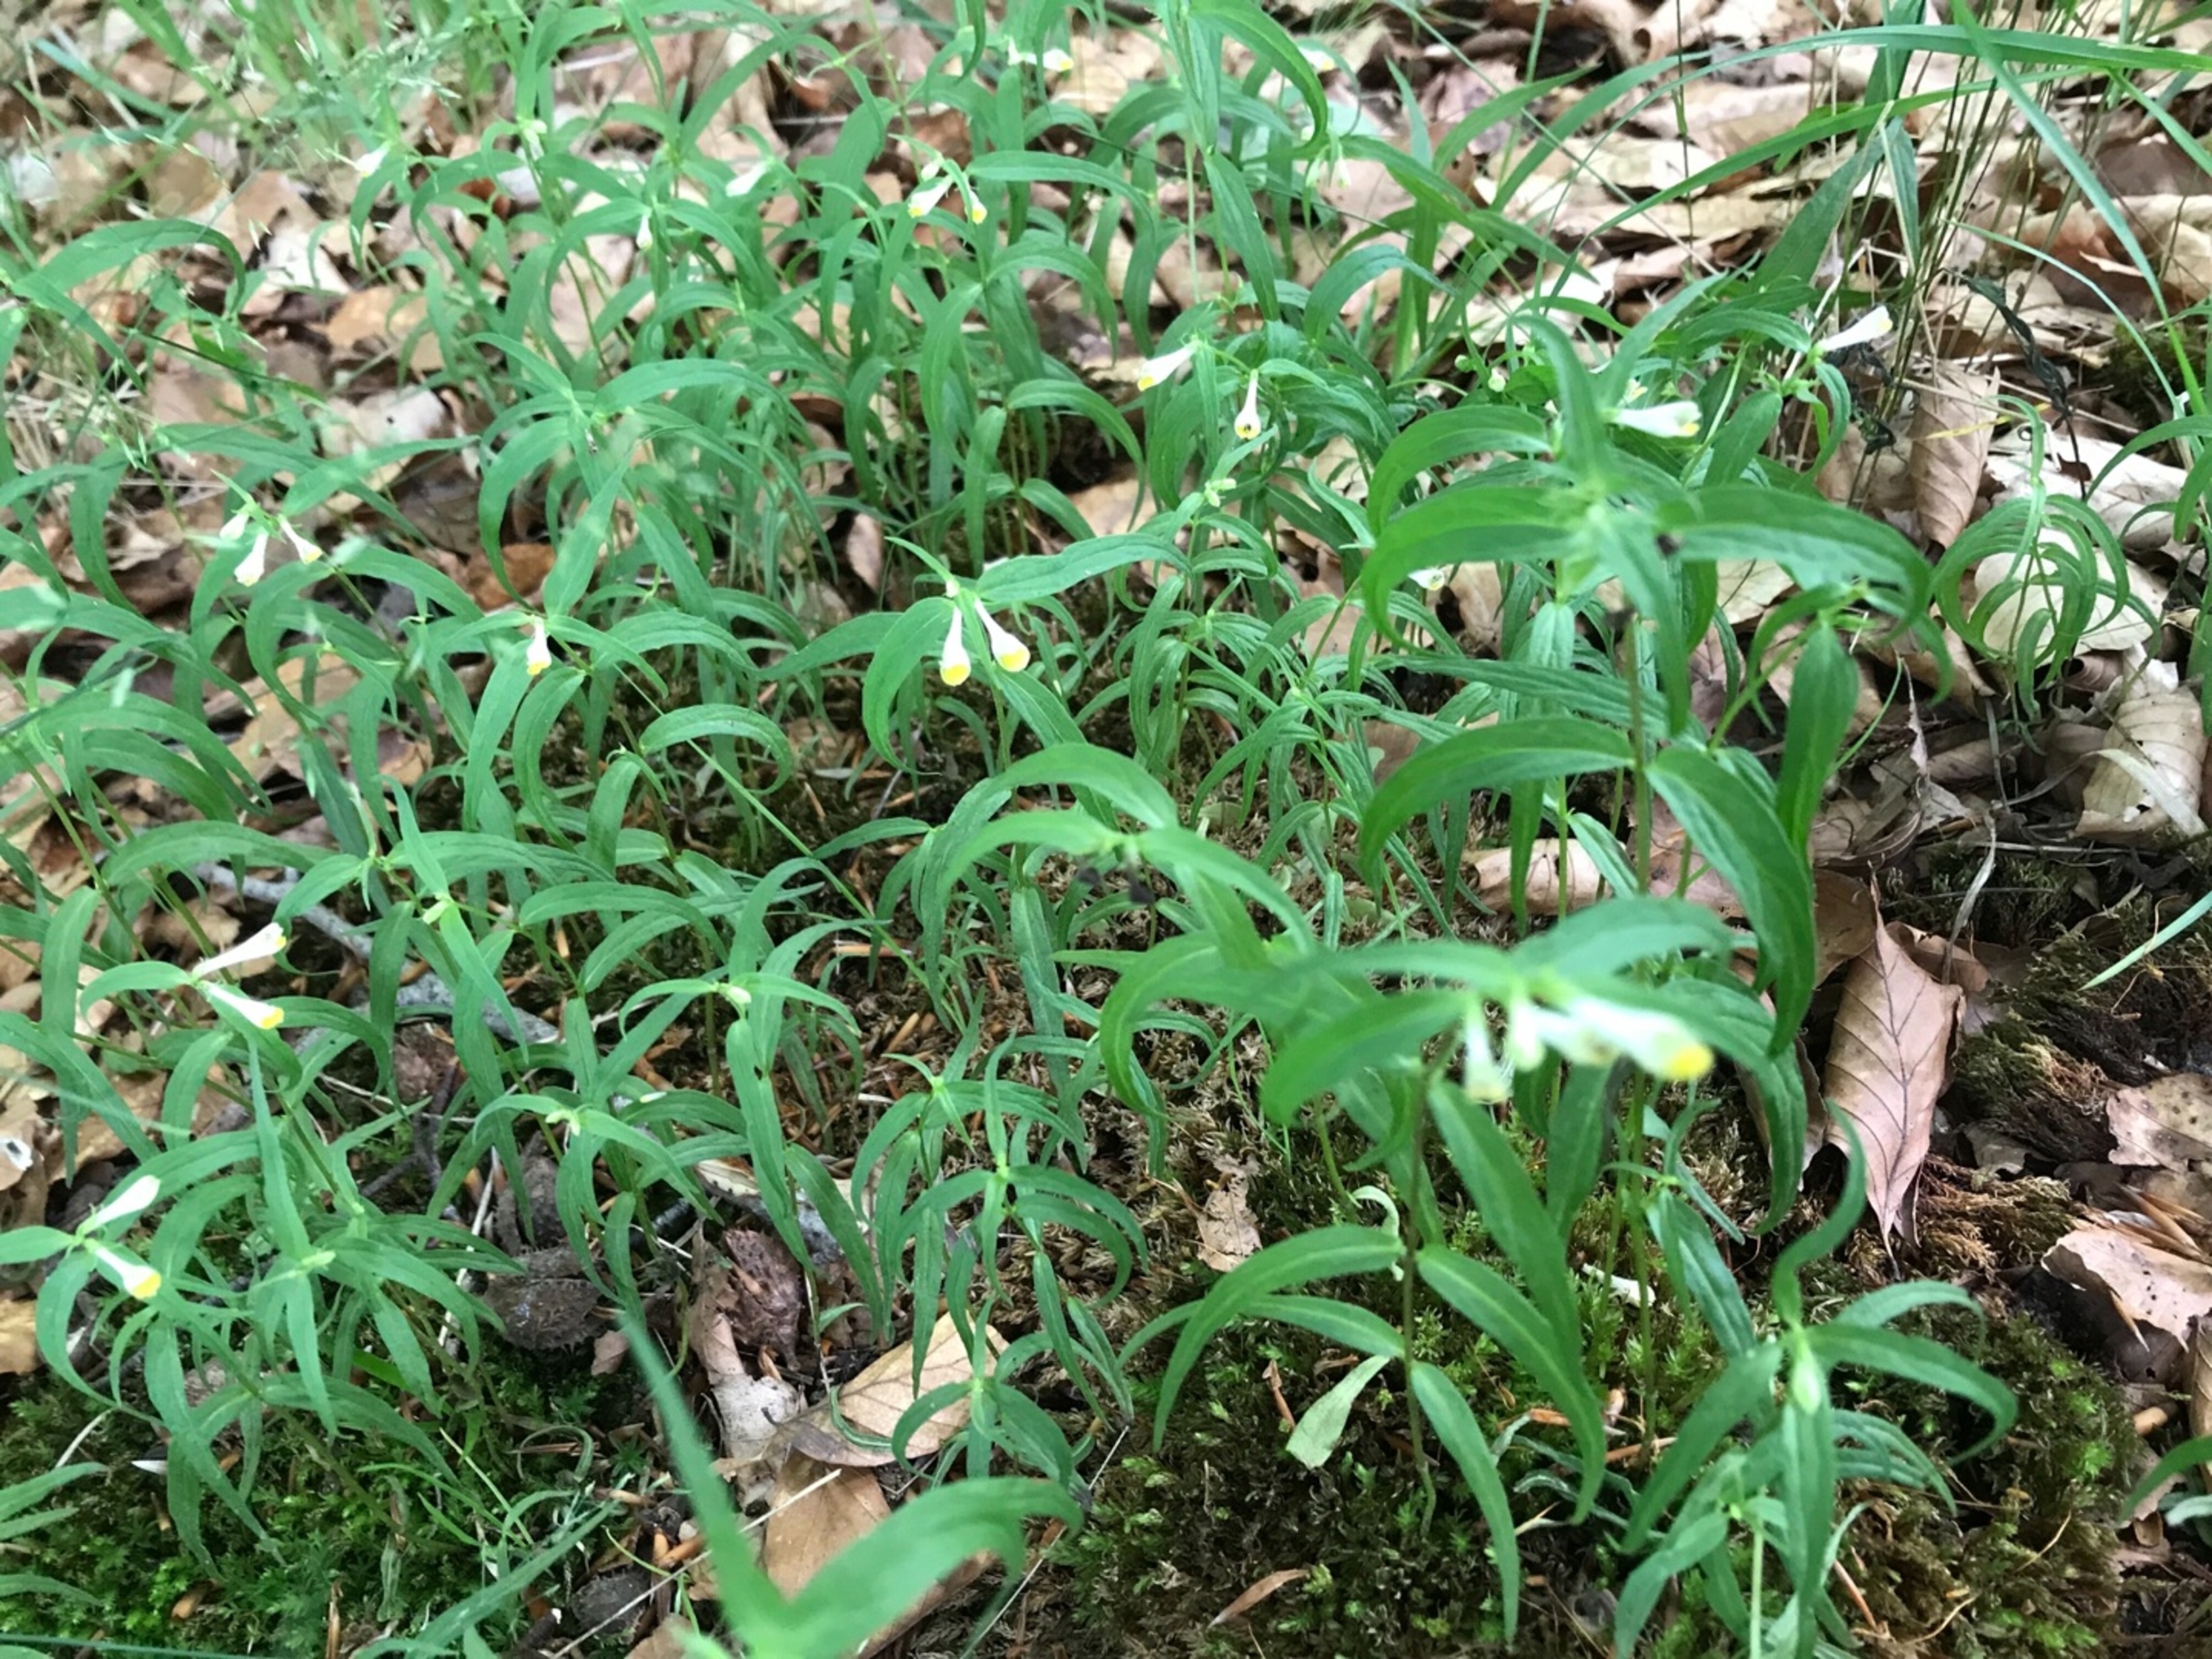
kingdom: Plantae
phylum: Tracheophyta
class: Magnoliopsida
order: Lamiales
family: Orobanchaceae
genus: Melampyrum
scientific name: Melampyrum pratense
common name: Almindelig kohvede
